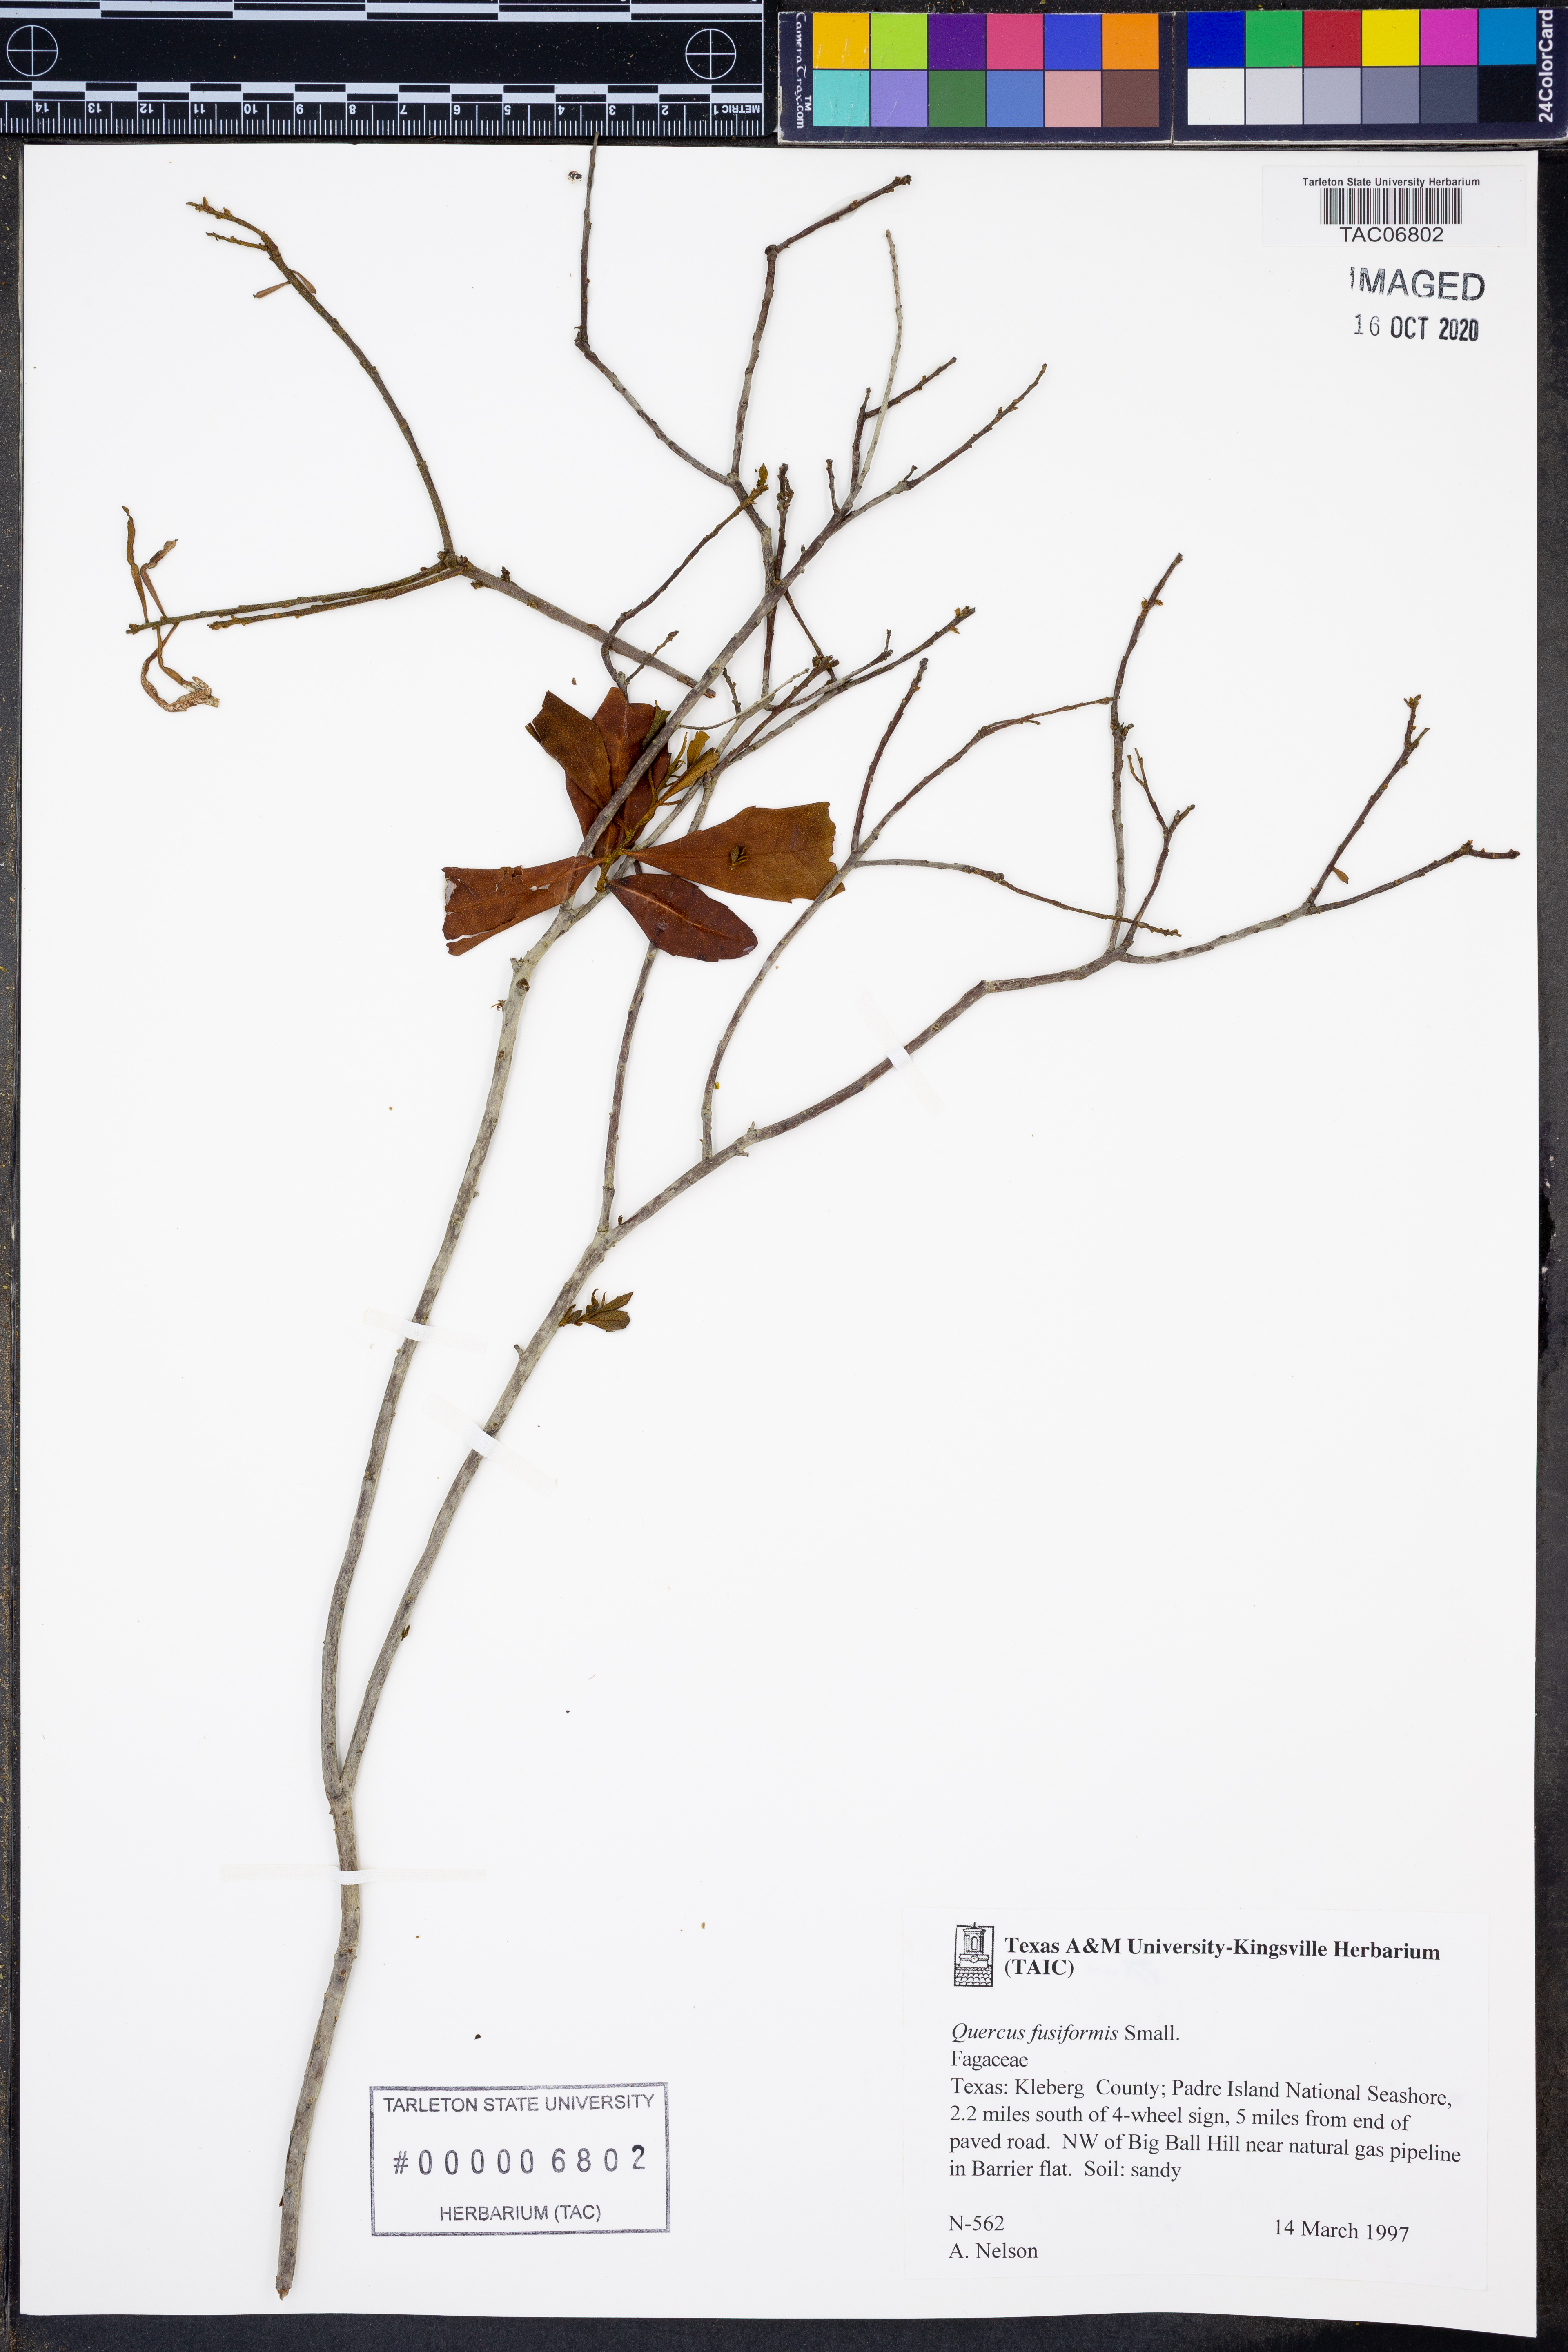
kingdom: Plantae
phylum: Tracheophyta
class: Magnoliopsida
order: Fagales
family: Fagaceae
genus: Quercus
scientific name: Quercus fusiformis
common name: Texas live oak
